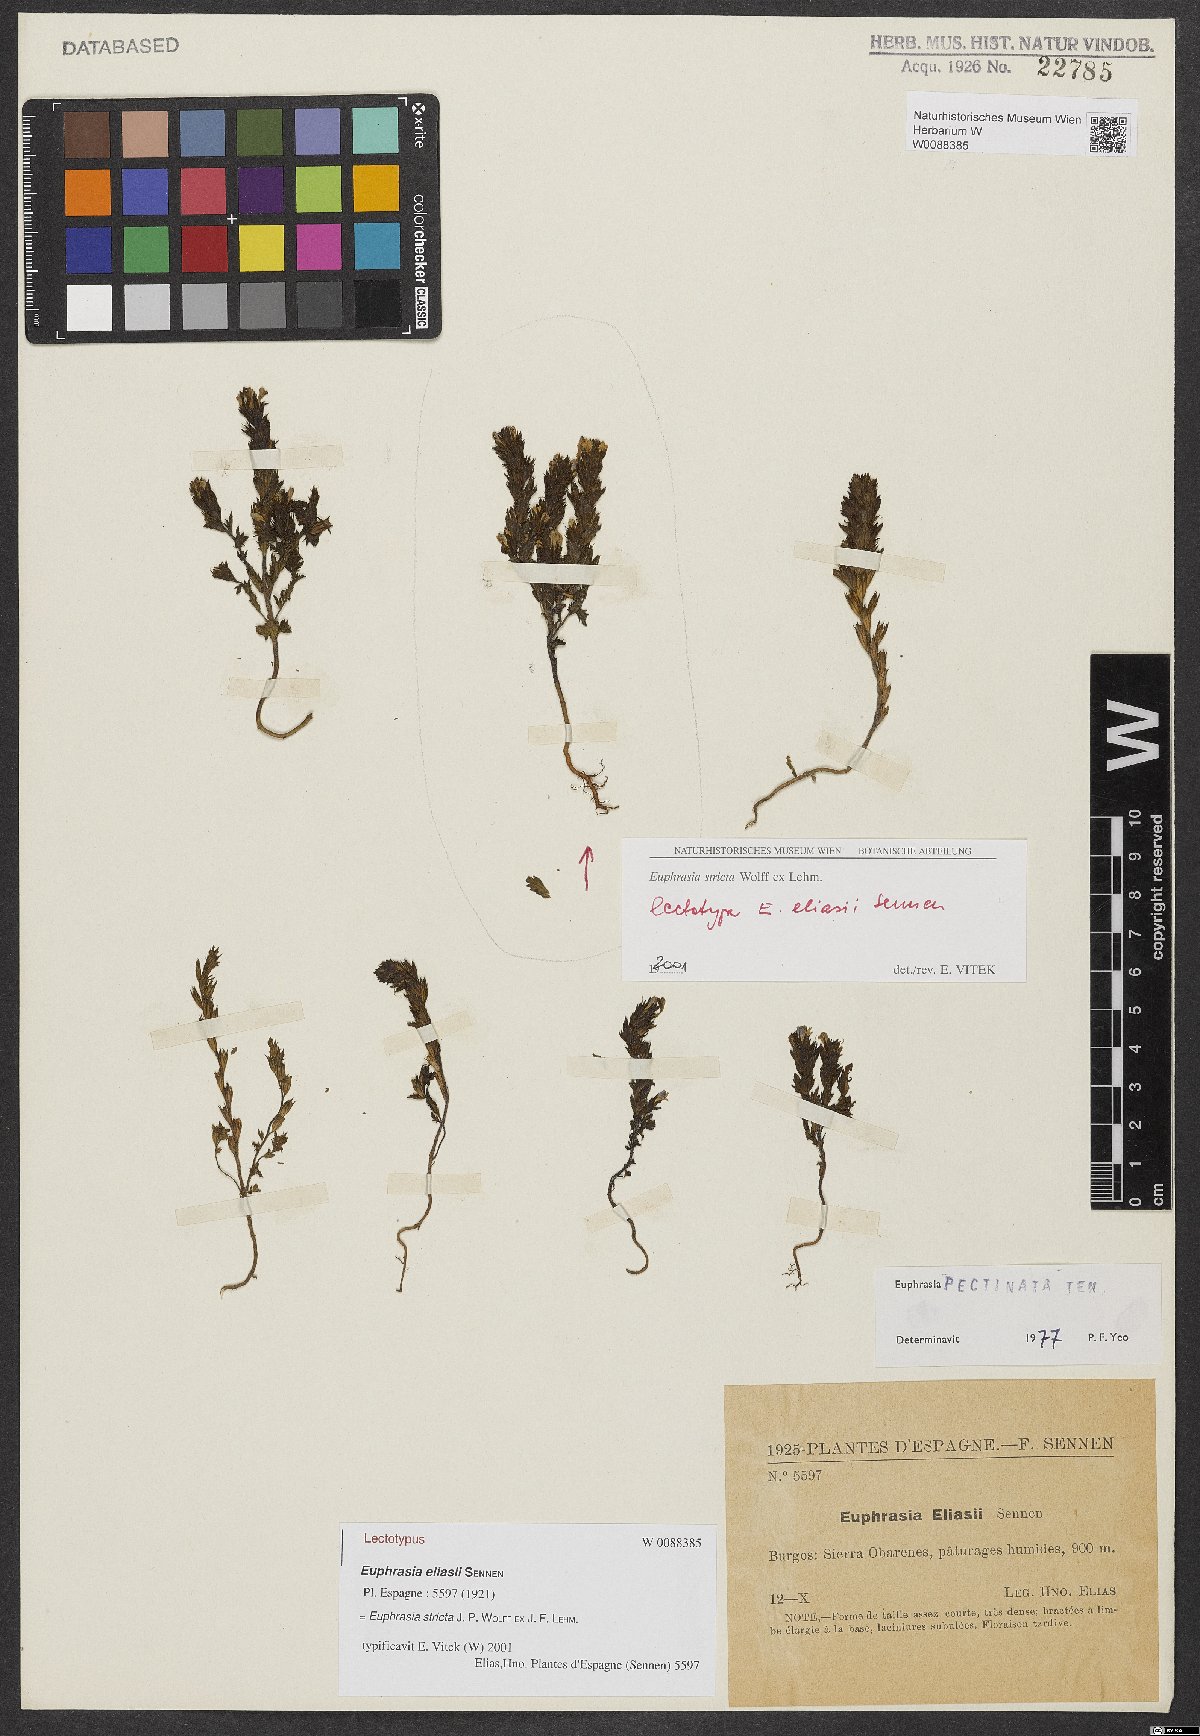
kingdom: Plantae
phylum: Tracheophyta
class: Magnoliopsida
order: Lamiales
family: Orobanchaceae
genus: Euphrasia
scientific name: Euphrasia stricta
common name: Drug eyebright
